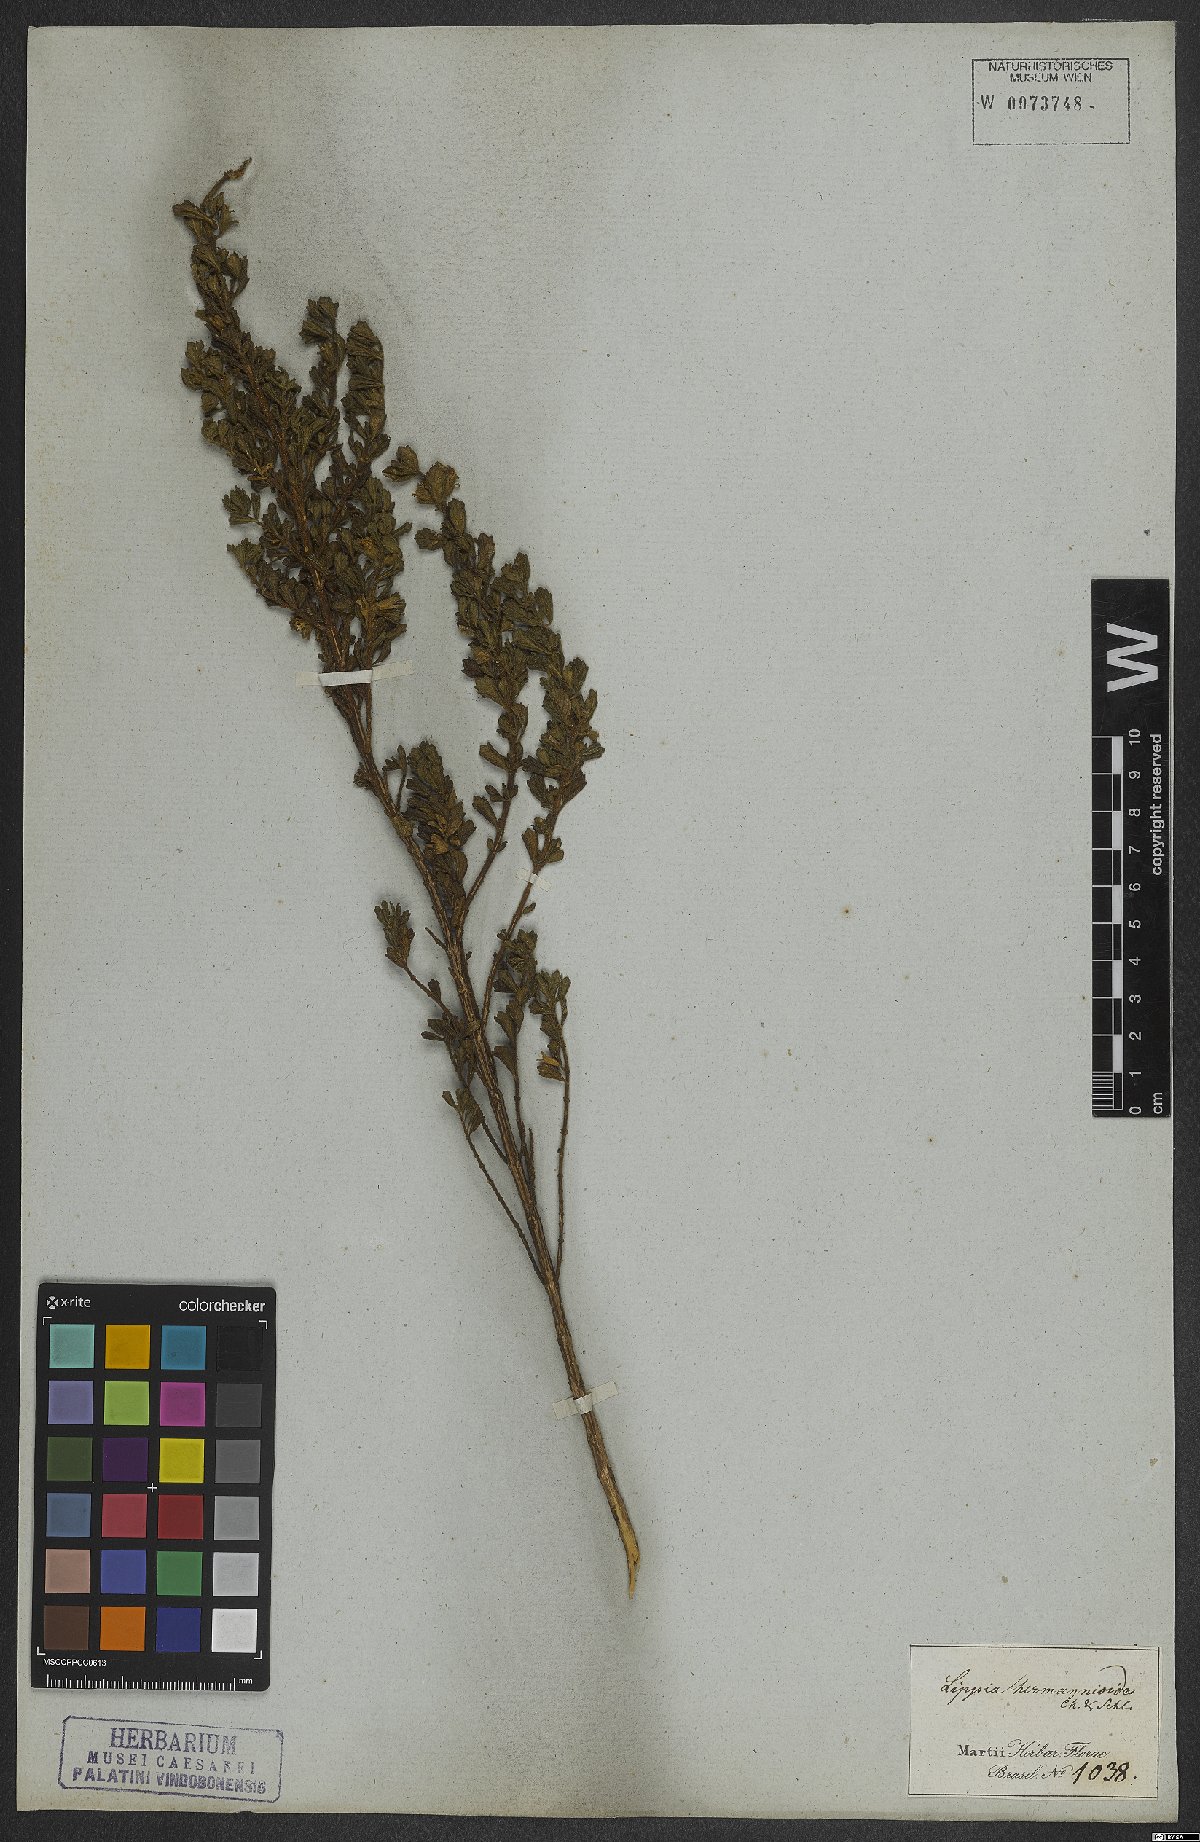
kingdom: Plantae
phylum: Tracheophyta
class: Magnoliopsida
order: Lamiales
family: Verbenaceae
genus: Lippia
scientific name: Lippia hermannioides
